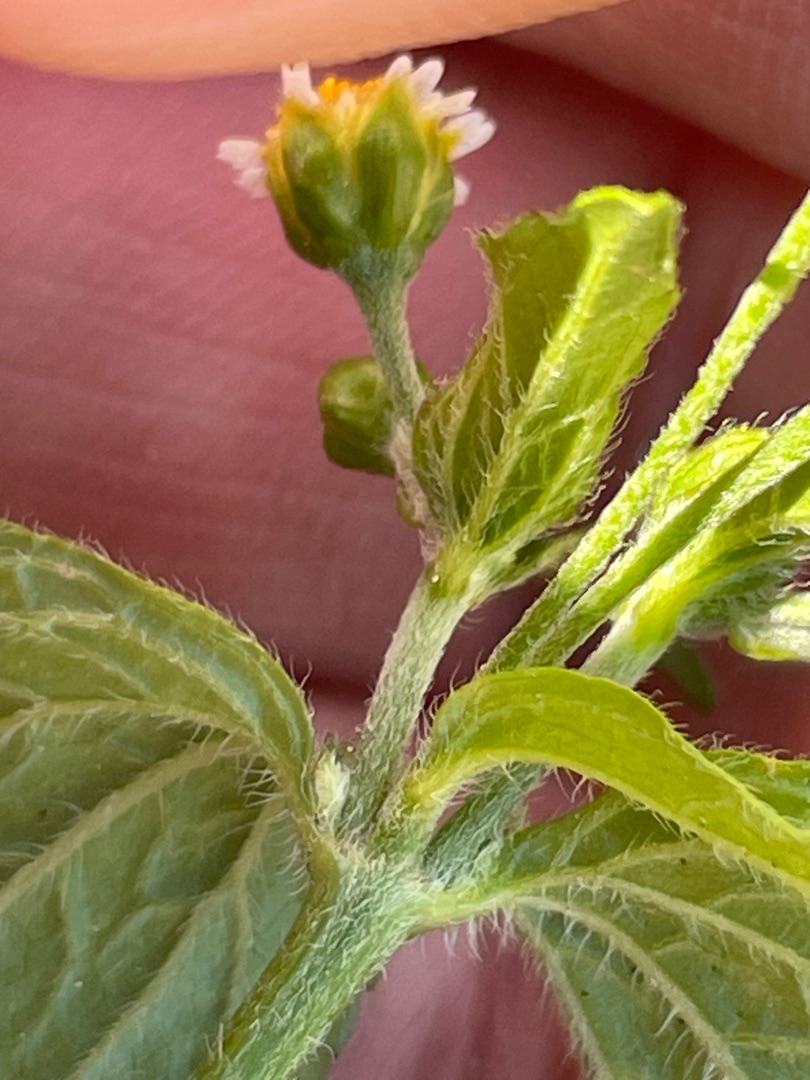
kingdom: Plantae
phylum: Tracheophyta
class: Magnoliopsida
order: Asterales
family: Asteraceae
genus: Galinsoga
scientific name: Galinsoga parviflora
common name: Håret kortstråle
